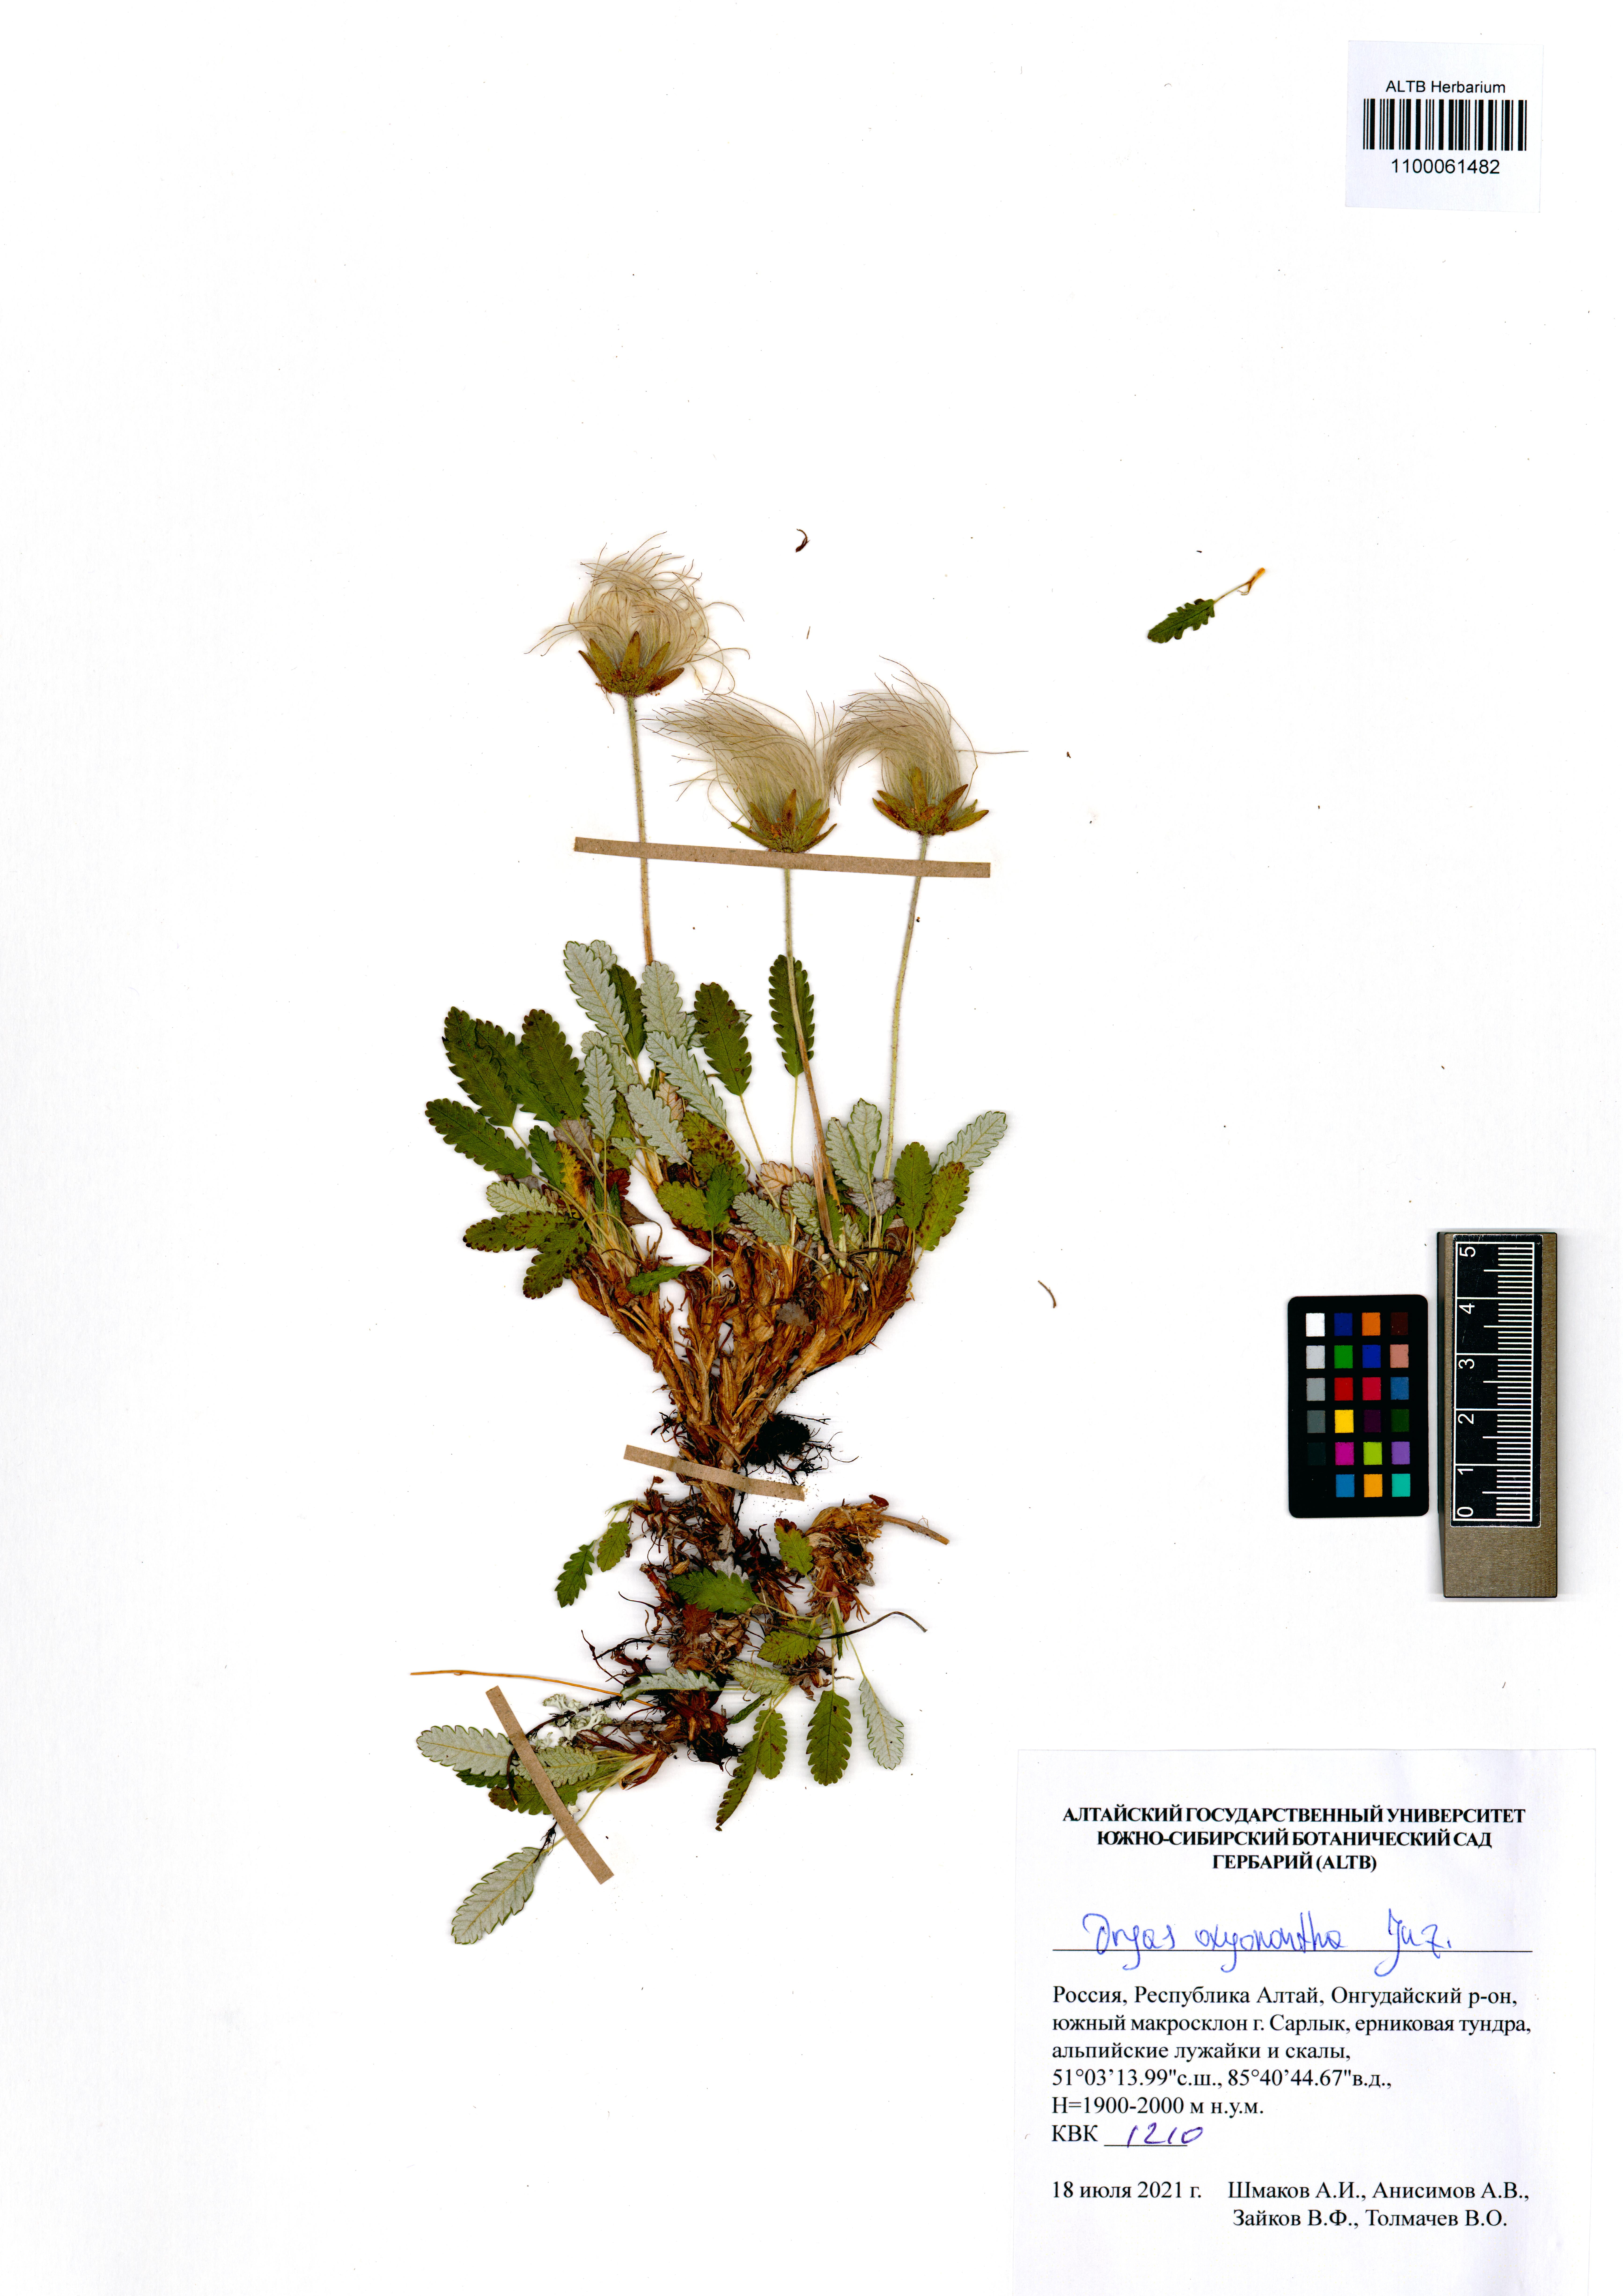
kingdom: Plantae
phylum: Tracheophyta
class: Magnoliopsida
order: Rosales
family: Rosaceae
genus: Dryas
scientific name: Dryas octopetala
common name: Eight-petal mountain-avens
